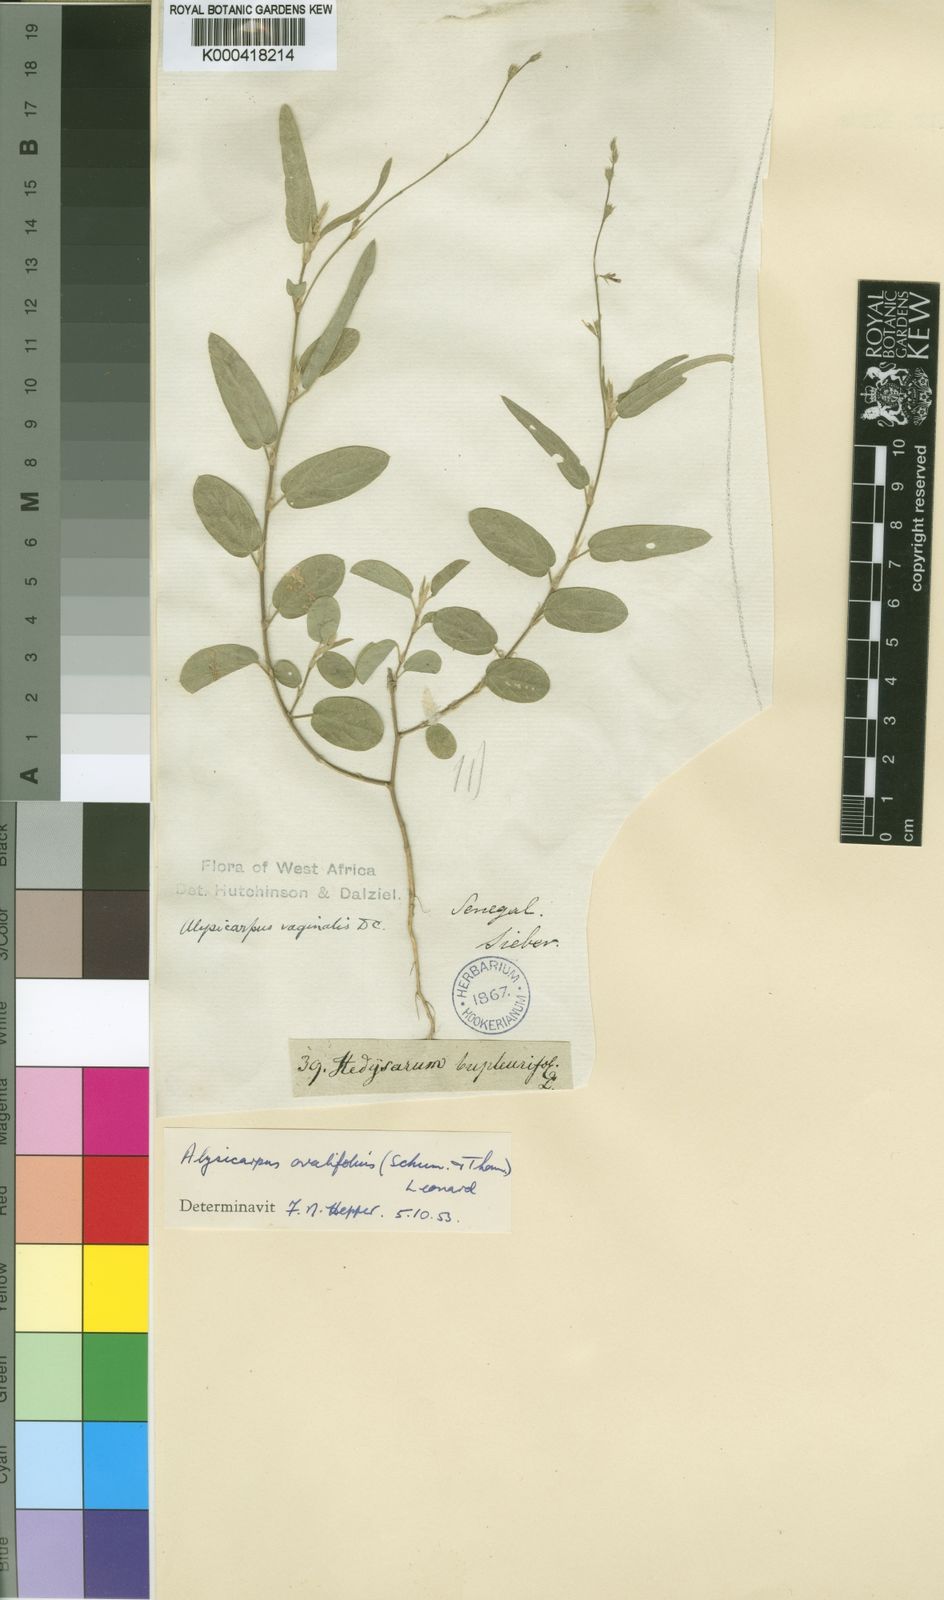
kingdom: Plantae
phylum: Tracheophyta
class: Magnoliopsida
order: Fabales
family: Fabaceae
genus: Alysicarpus
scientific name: Alysicarpus
